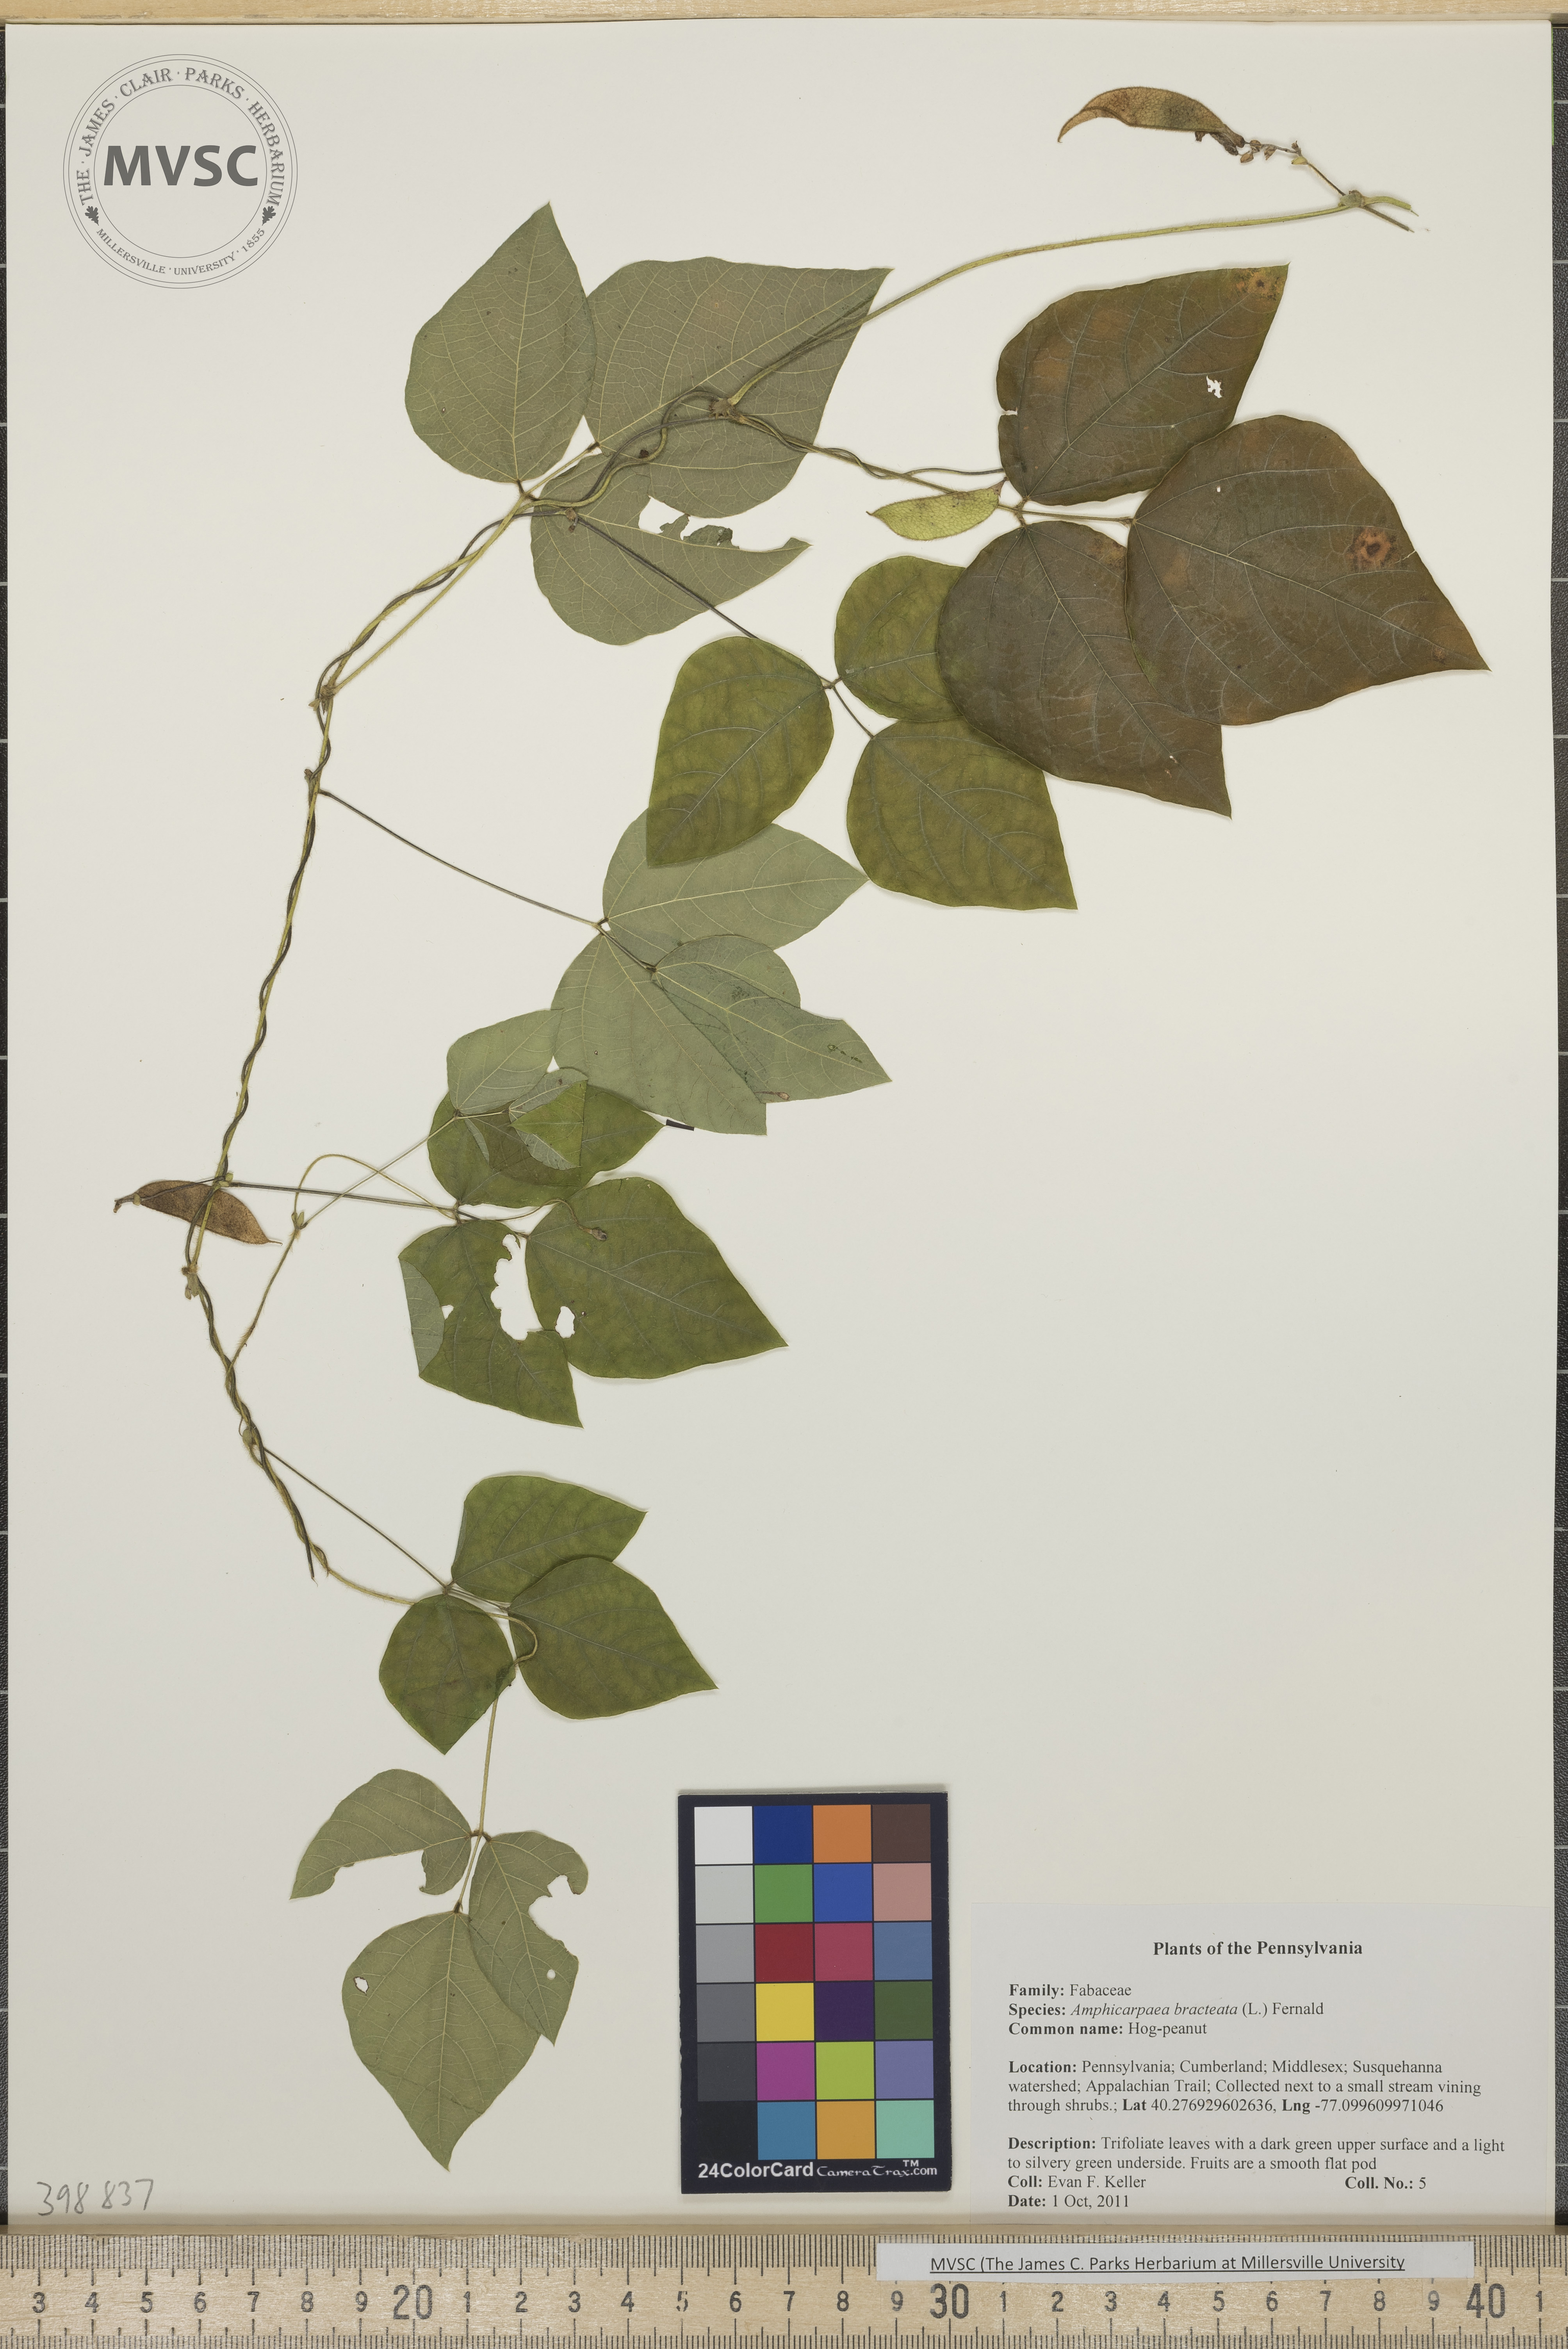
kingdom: Plantae
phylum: Tracheophyta
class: Magnoliopsida
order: Fabales
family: Fabaceae
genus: Amphicarpaea
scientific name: Amphicarpaea bracteata
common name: Hog peanut
